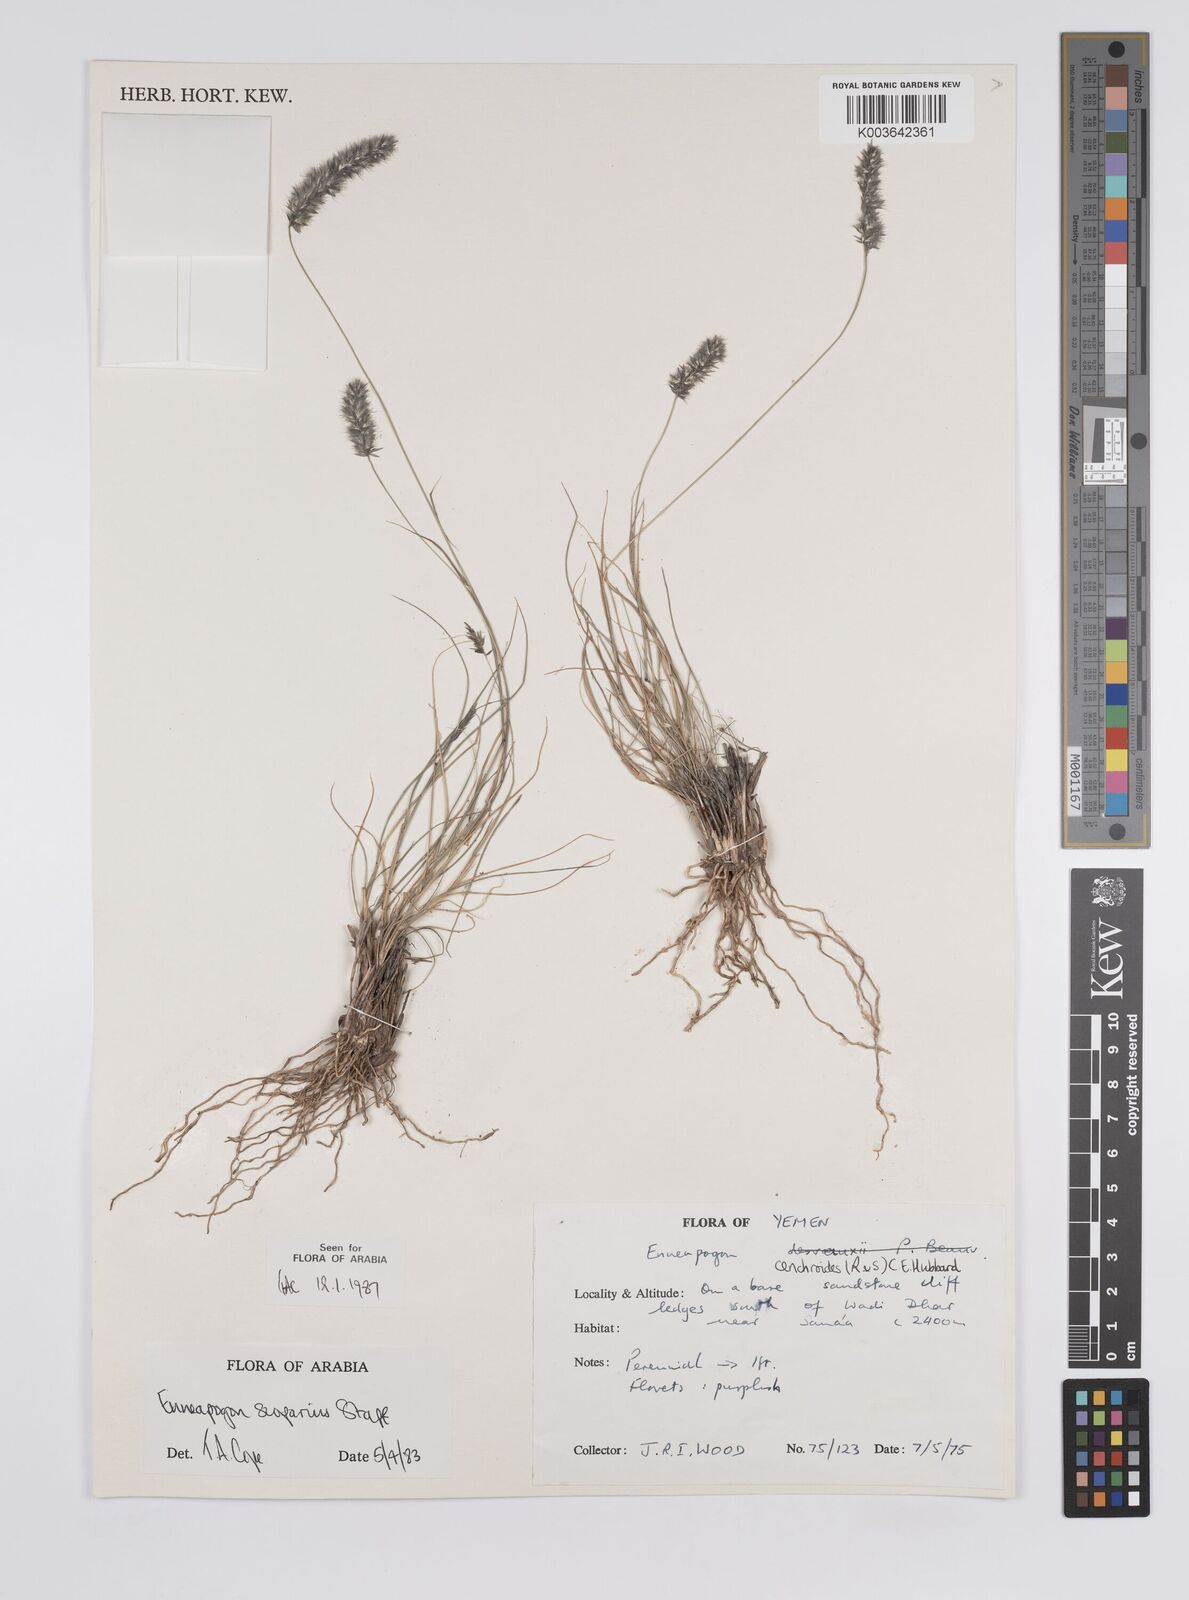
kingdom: Plantae
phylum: Tracheophyta
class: Liliopsida
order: Poales
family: Poaceae
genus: Enneapogon
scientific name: Enneapogon scoparius
